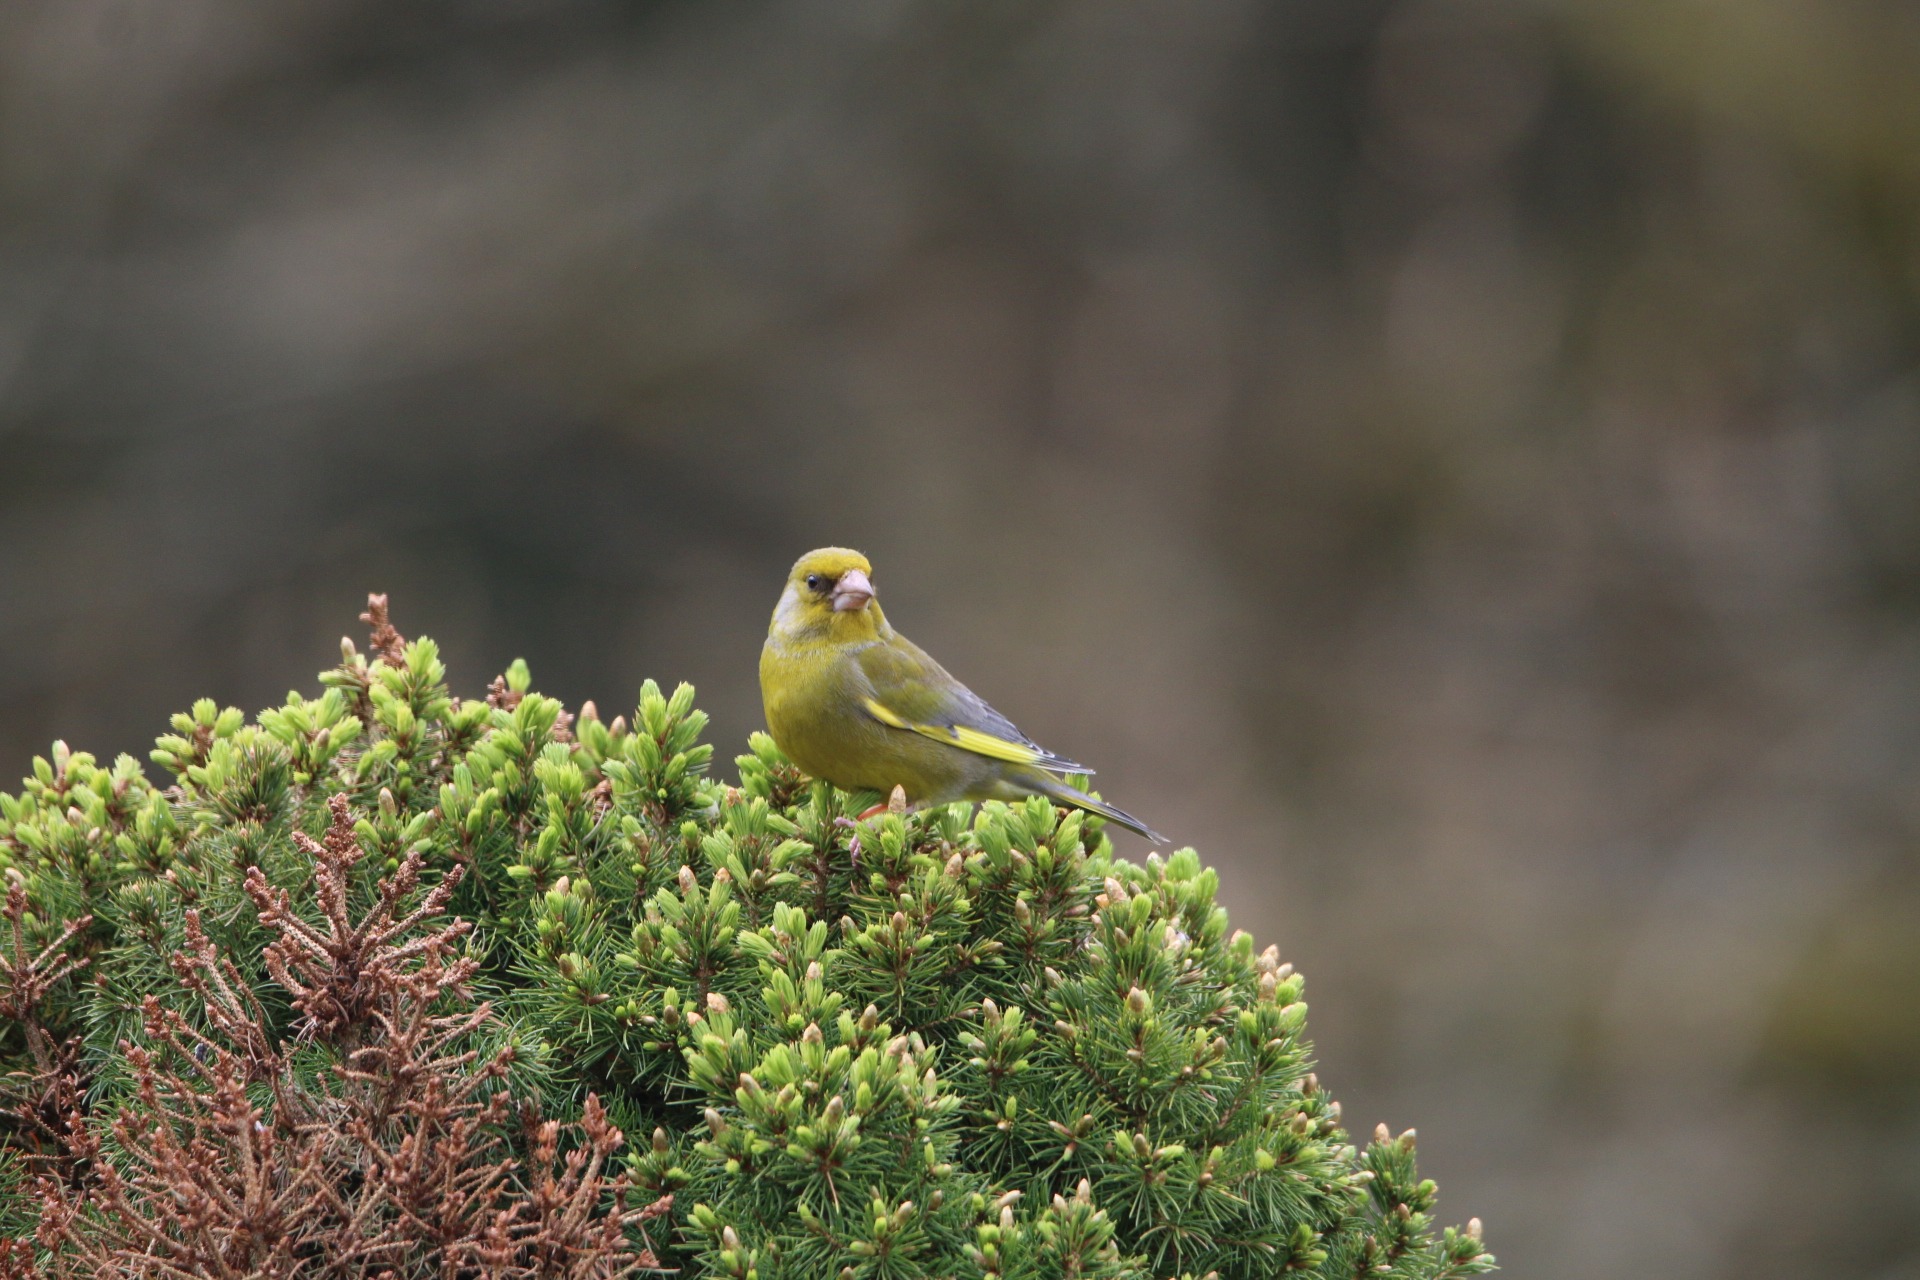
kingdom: Plantae
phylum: Tracheophyta
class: Liliopsida
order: Poales
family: Poaceae
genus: Chloris
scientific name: Chloris chloris
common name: Grønirisk
